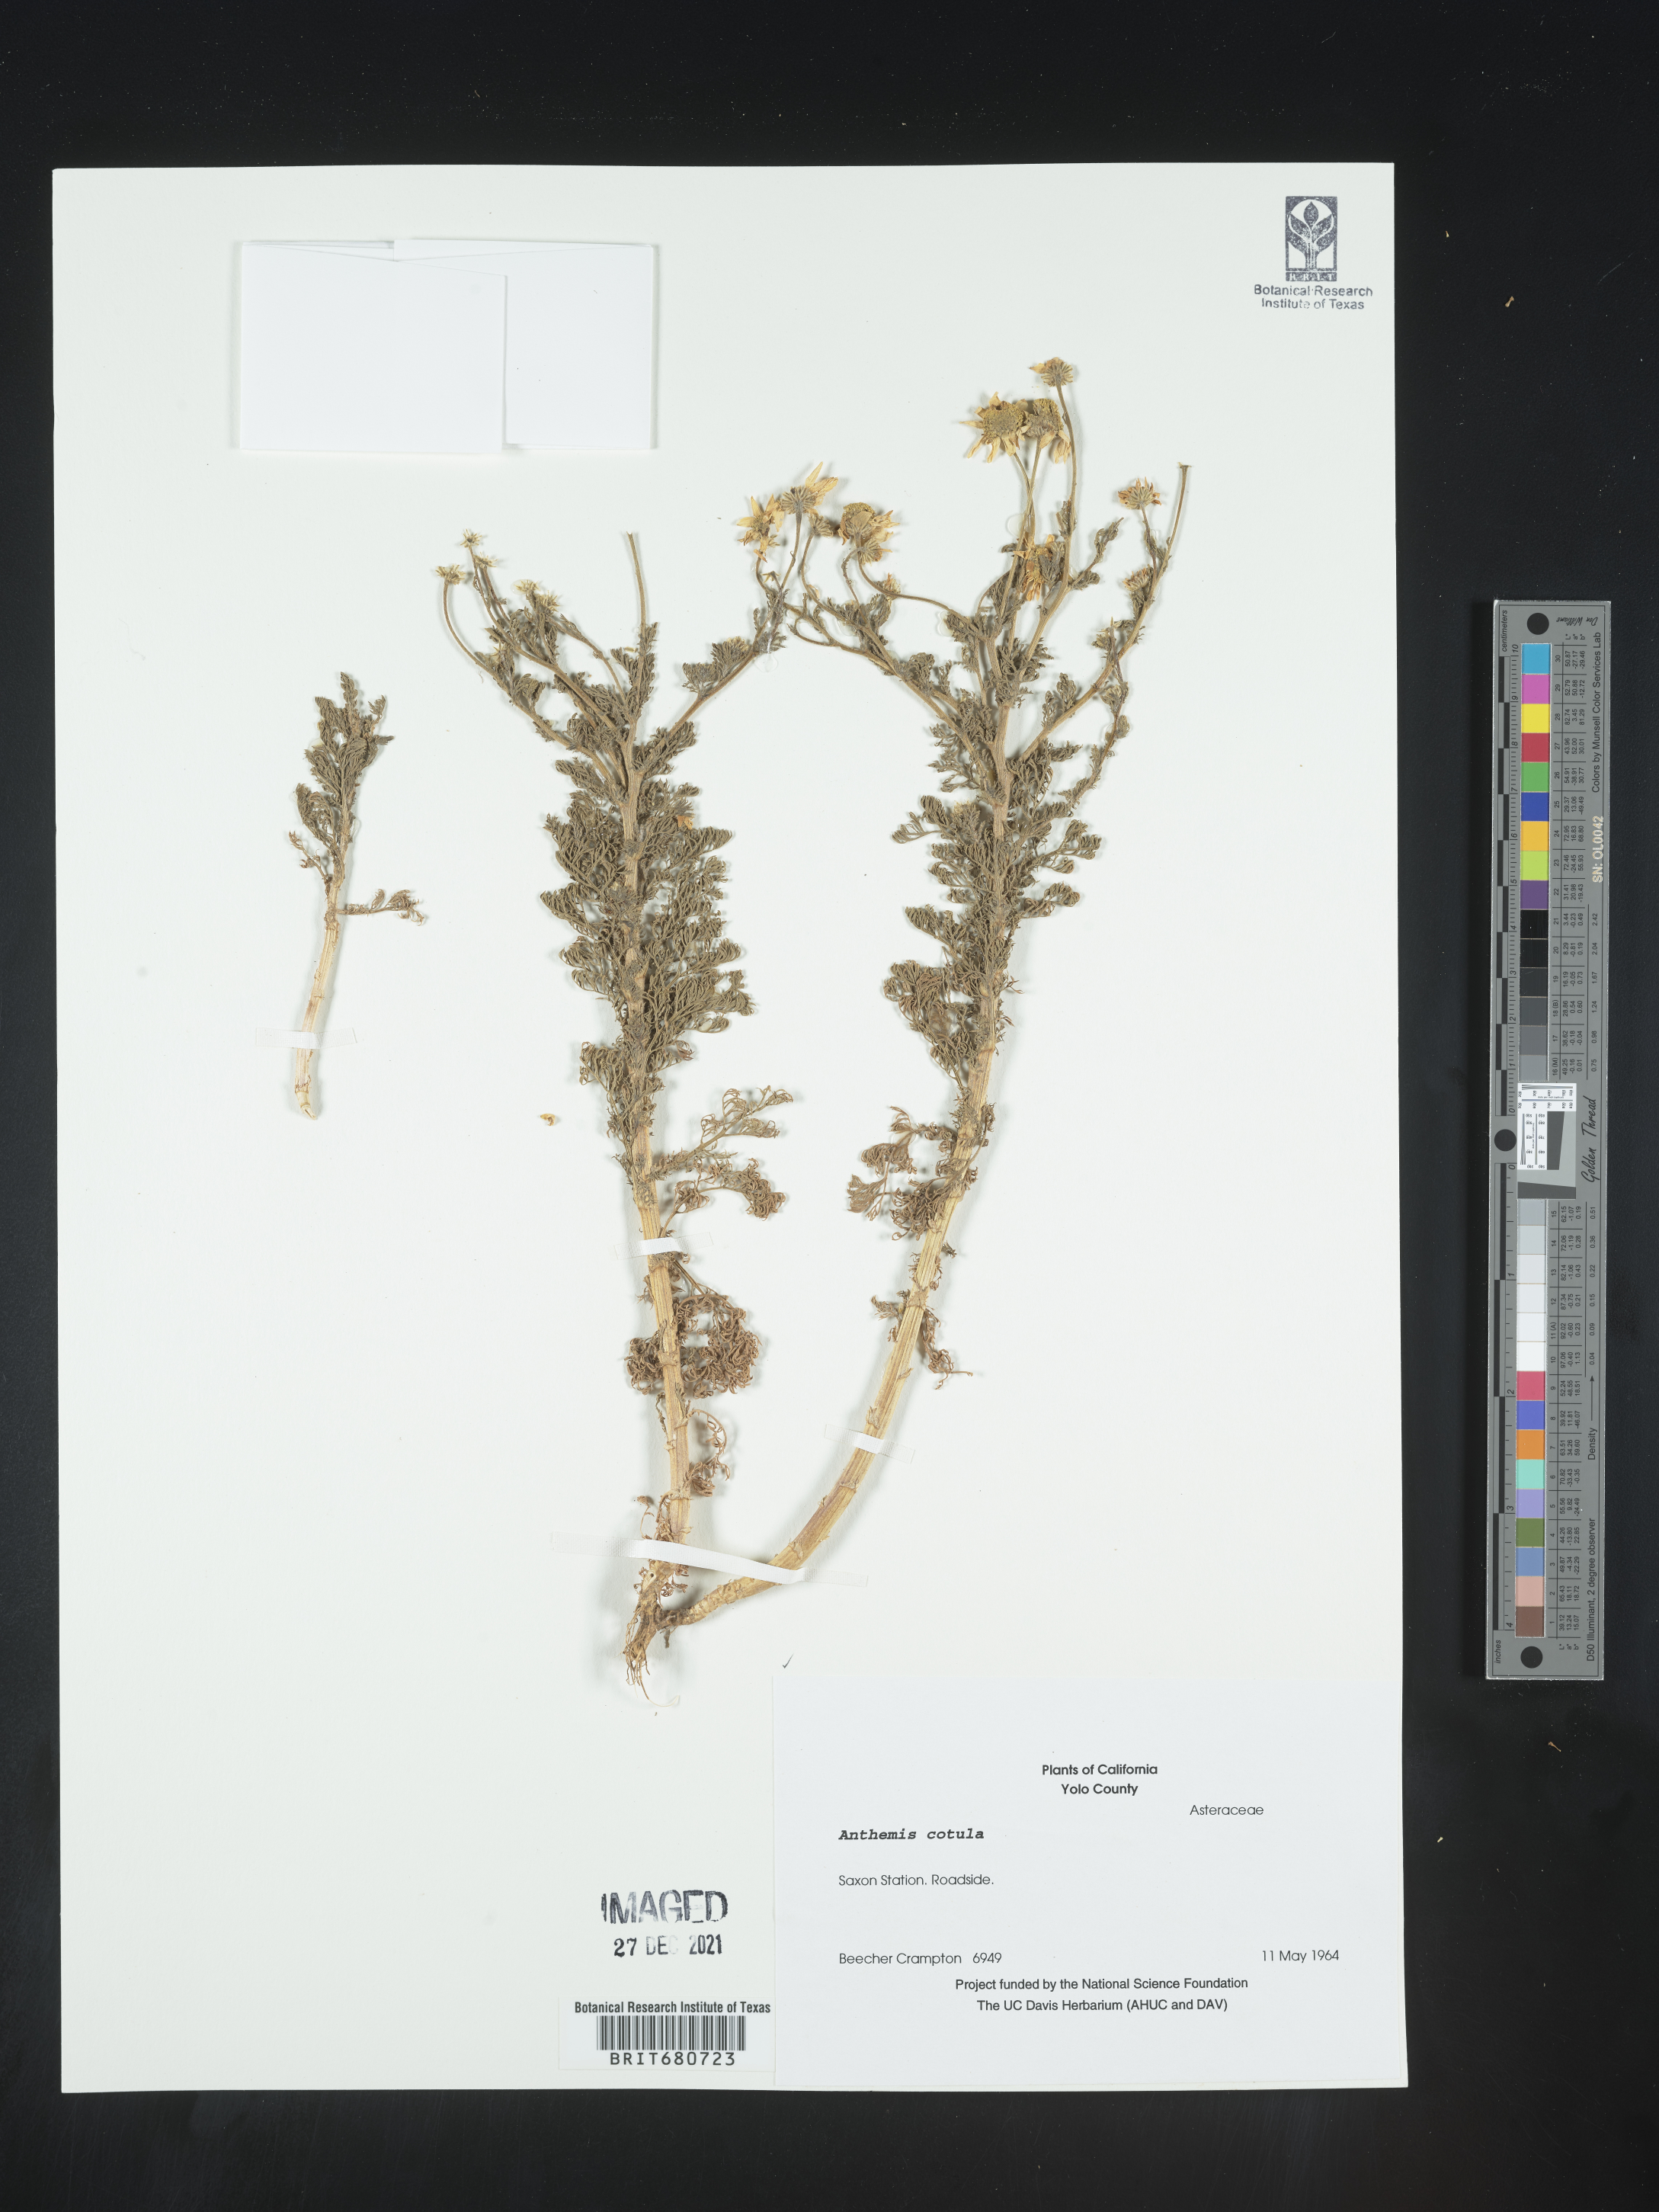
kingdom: Plantae
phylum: Tracheophyta
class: Magnoliopsida
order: Asterales
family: Asteraceae
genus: Anthemis
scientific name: Anthemis cotula
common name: Stinking chamomile
